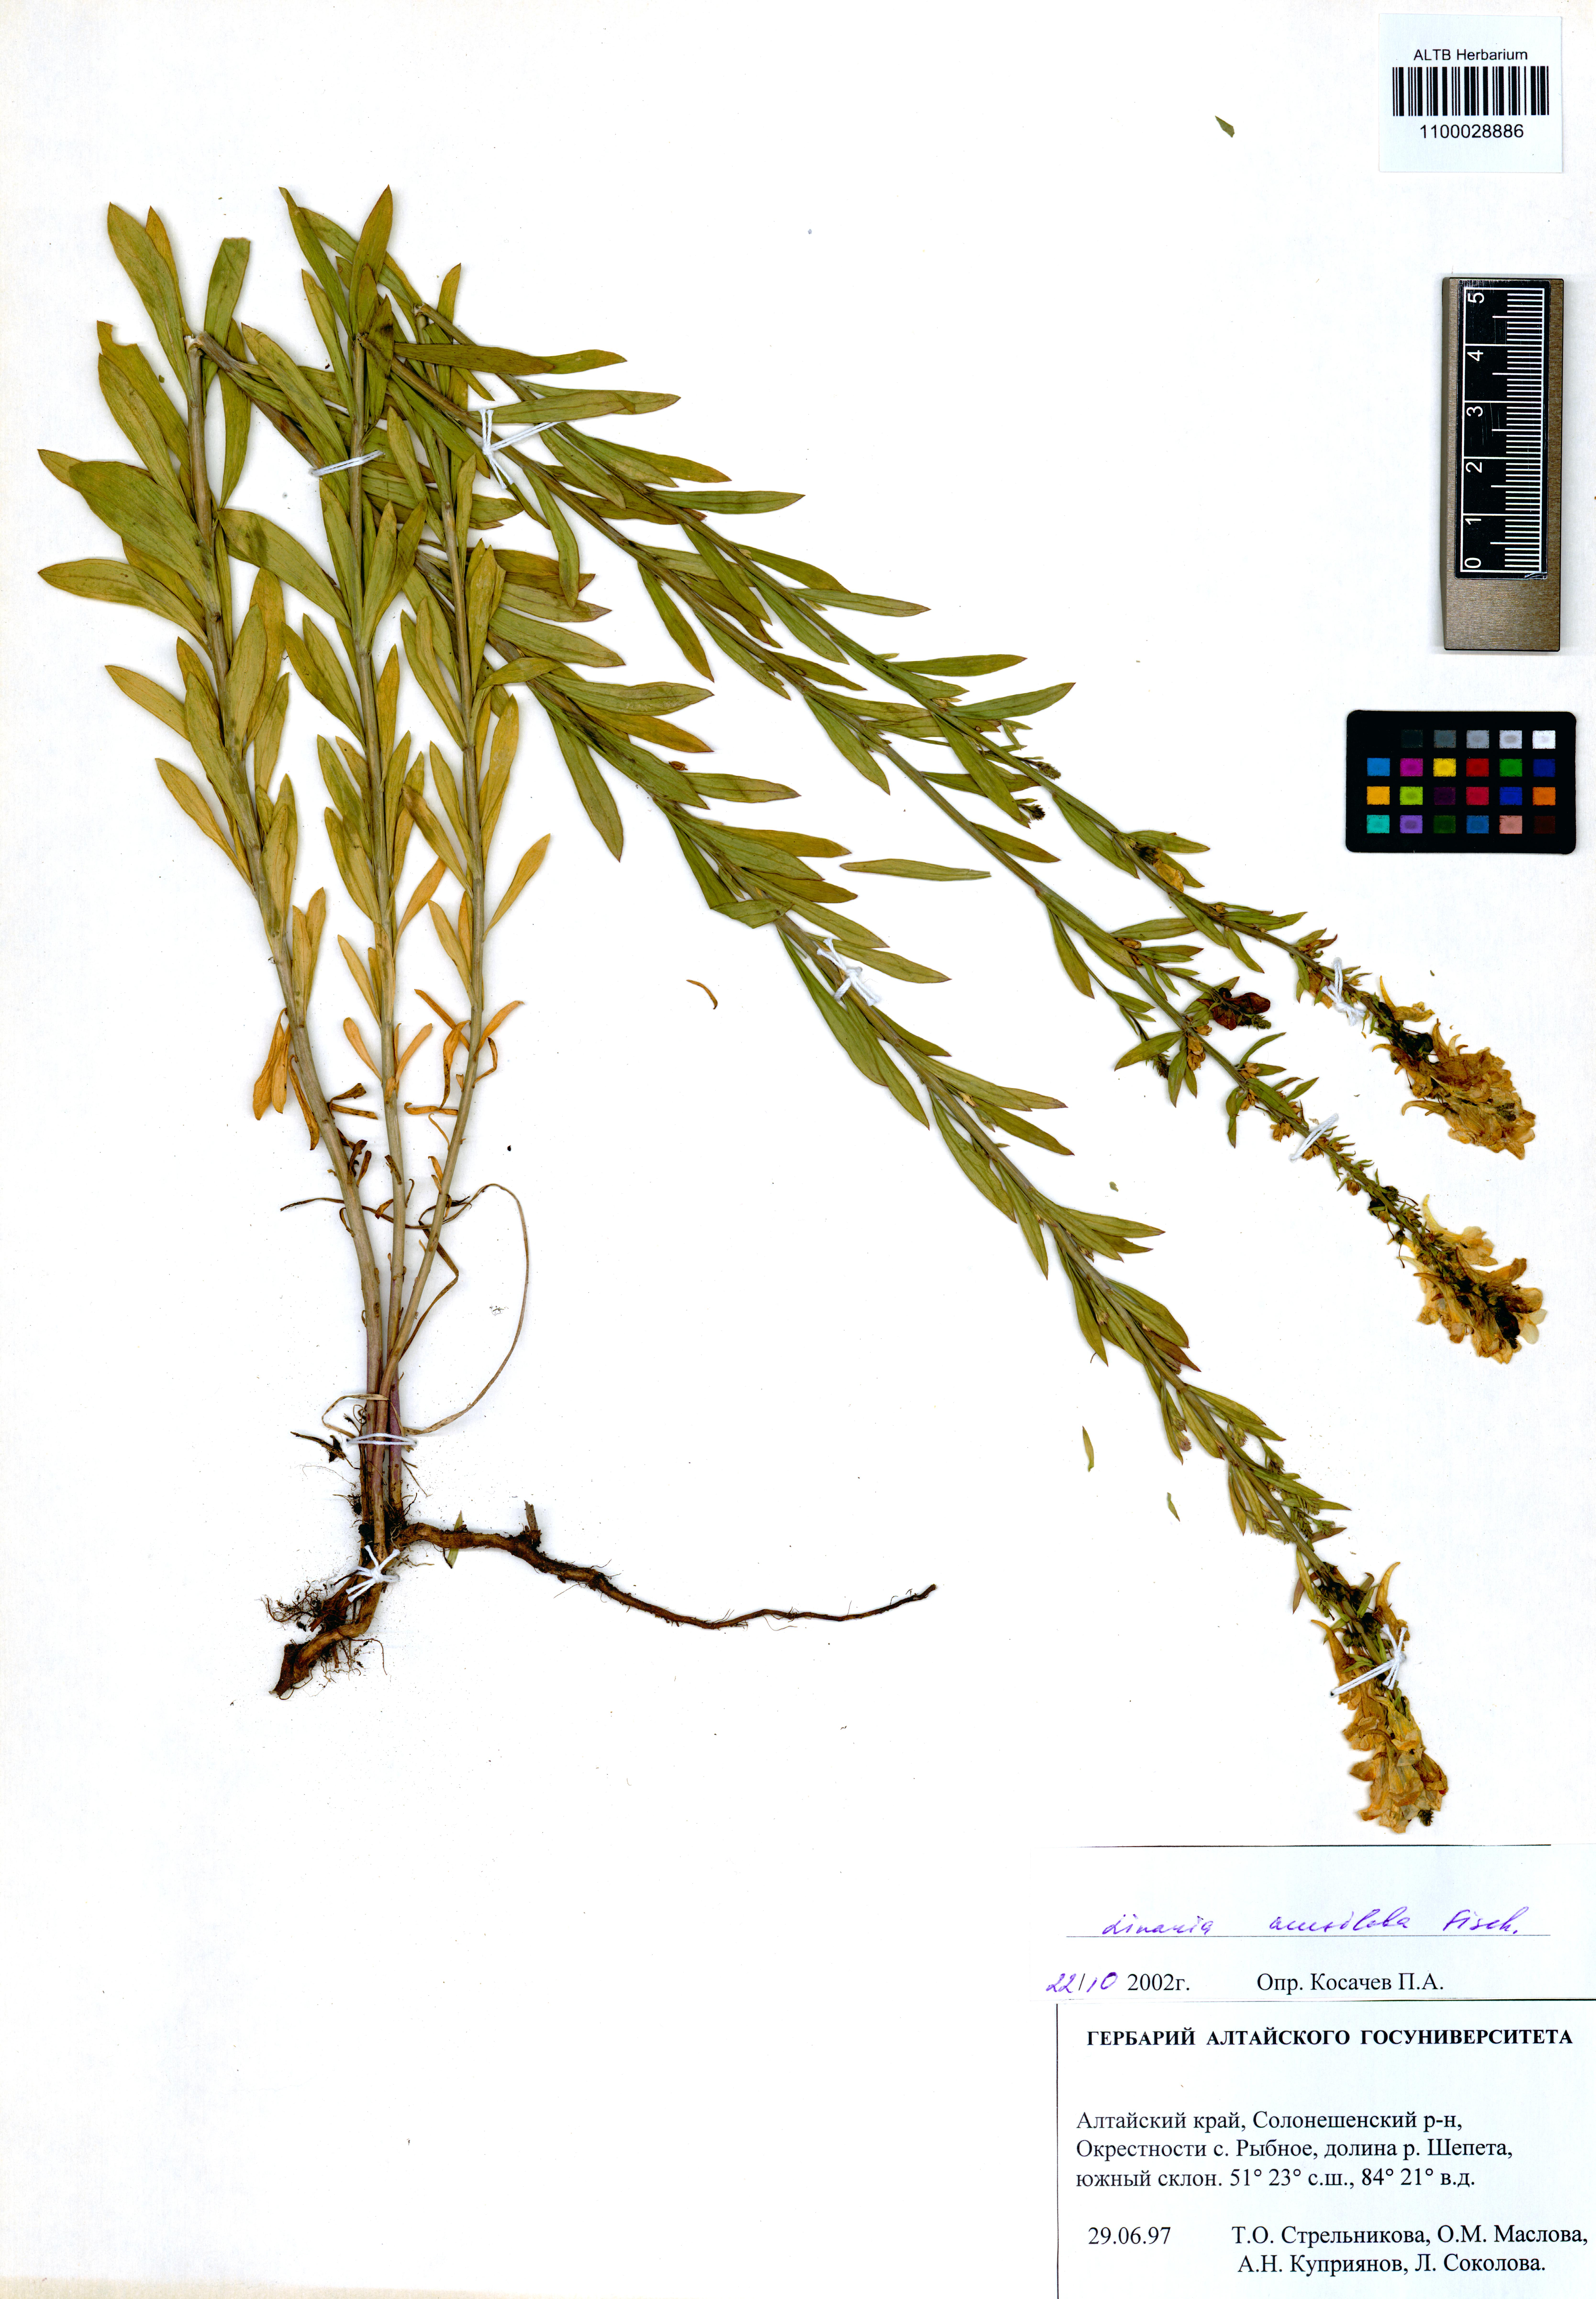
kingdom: Plantae
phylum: Tracheophyta
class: Magnoliopsida
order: Lamiales
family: Plantaginaceae
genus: Linaria
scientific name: Linaria acutiloba
